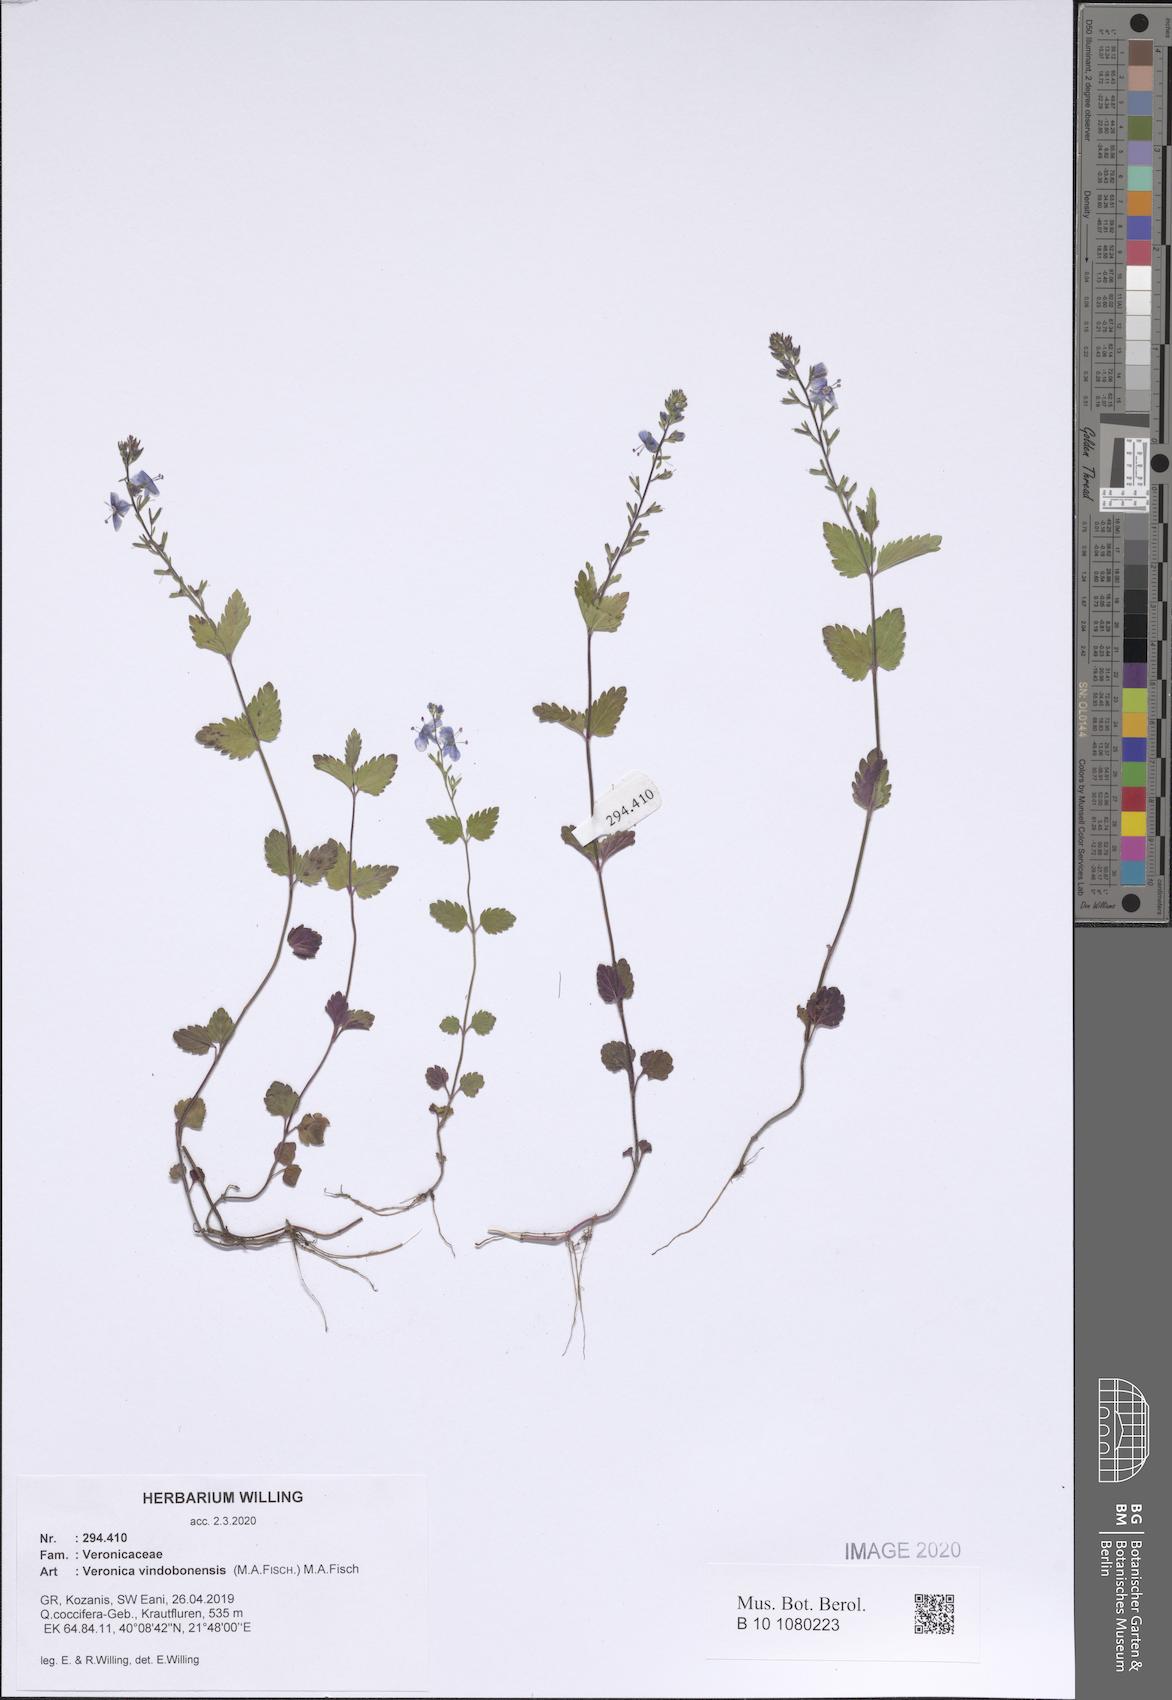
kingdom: Plantae
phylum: Tracheophyta
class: Magnoliopsida
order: Lamiales
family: Plantaginaceae
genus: Veronica
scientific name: Veronica vindobonensis
